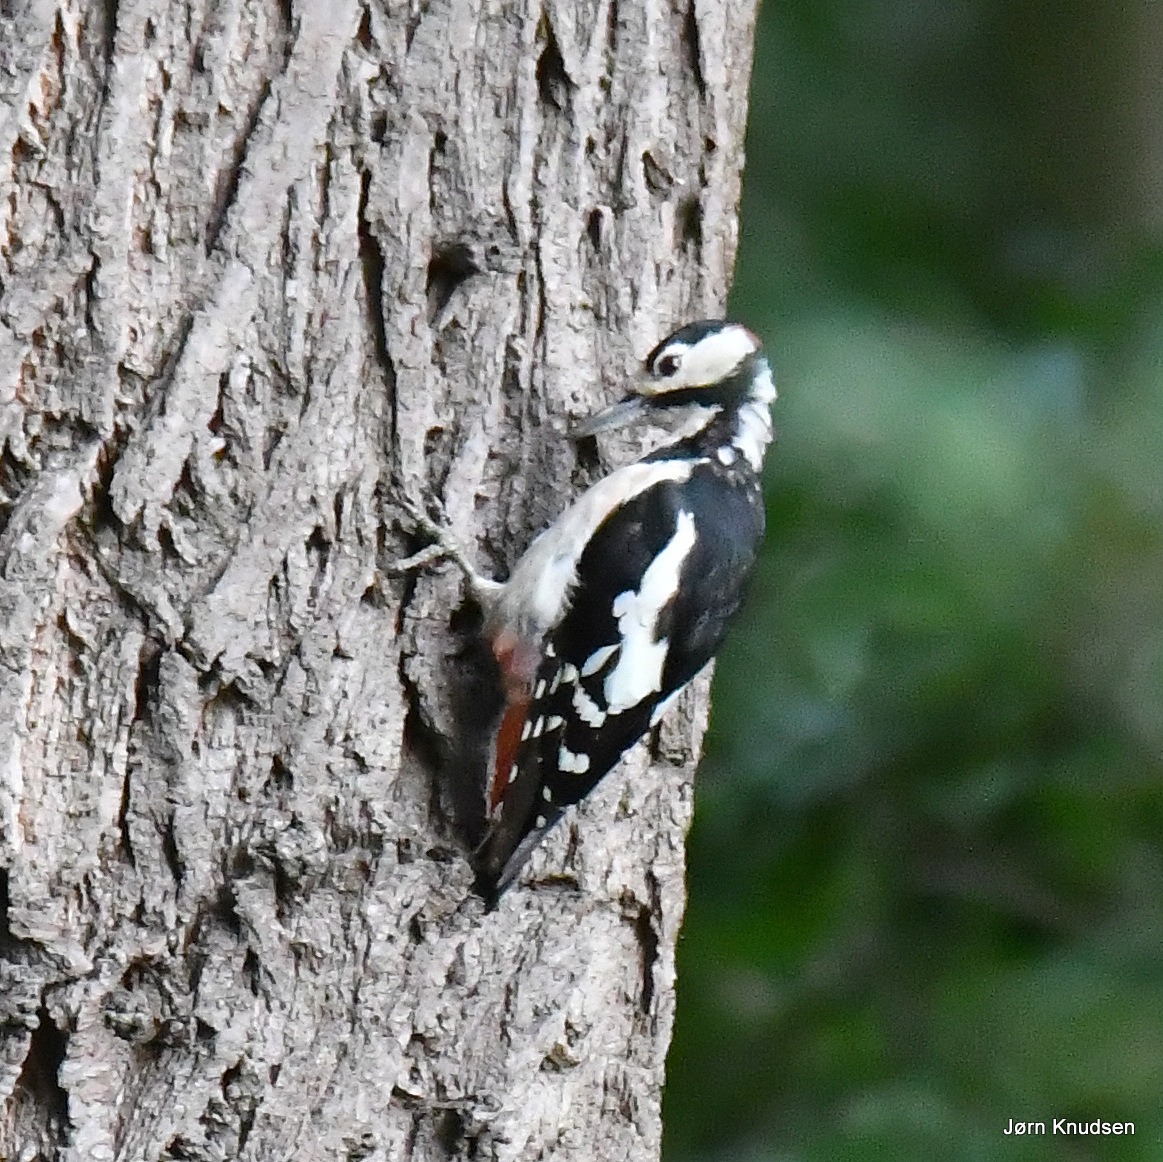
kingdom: Animalia
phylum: Chordata
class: Aves
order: Piciformes
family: Picidae
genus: Dendrocopos
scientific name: Dendrocopos major
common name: Stor flagspætte
